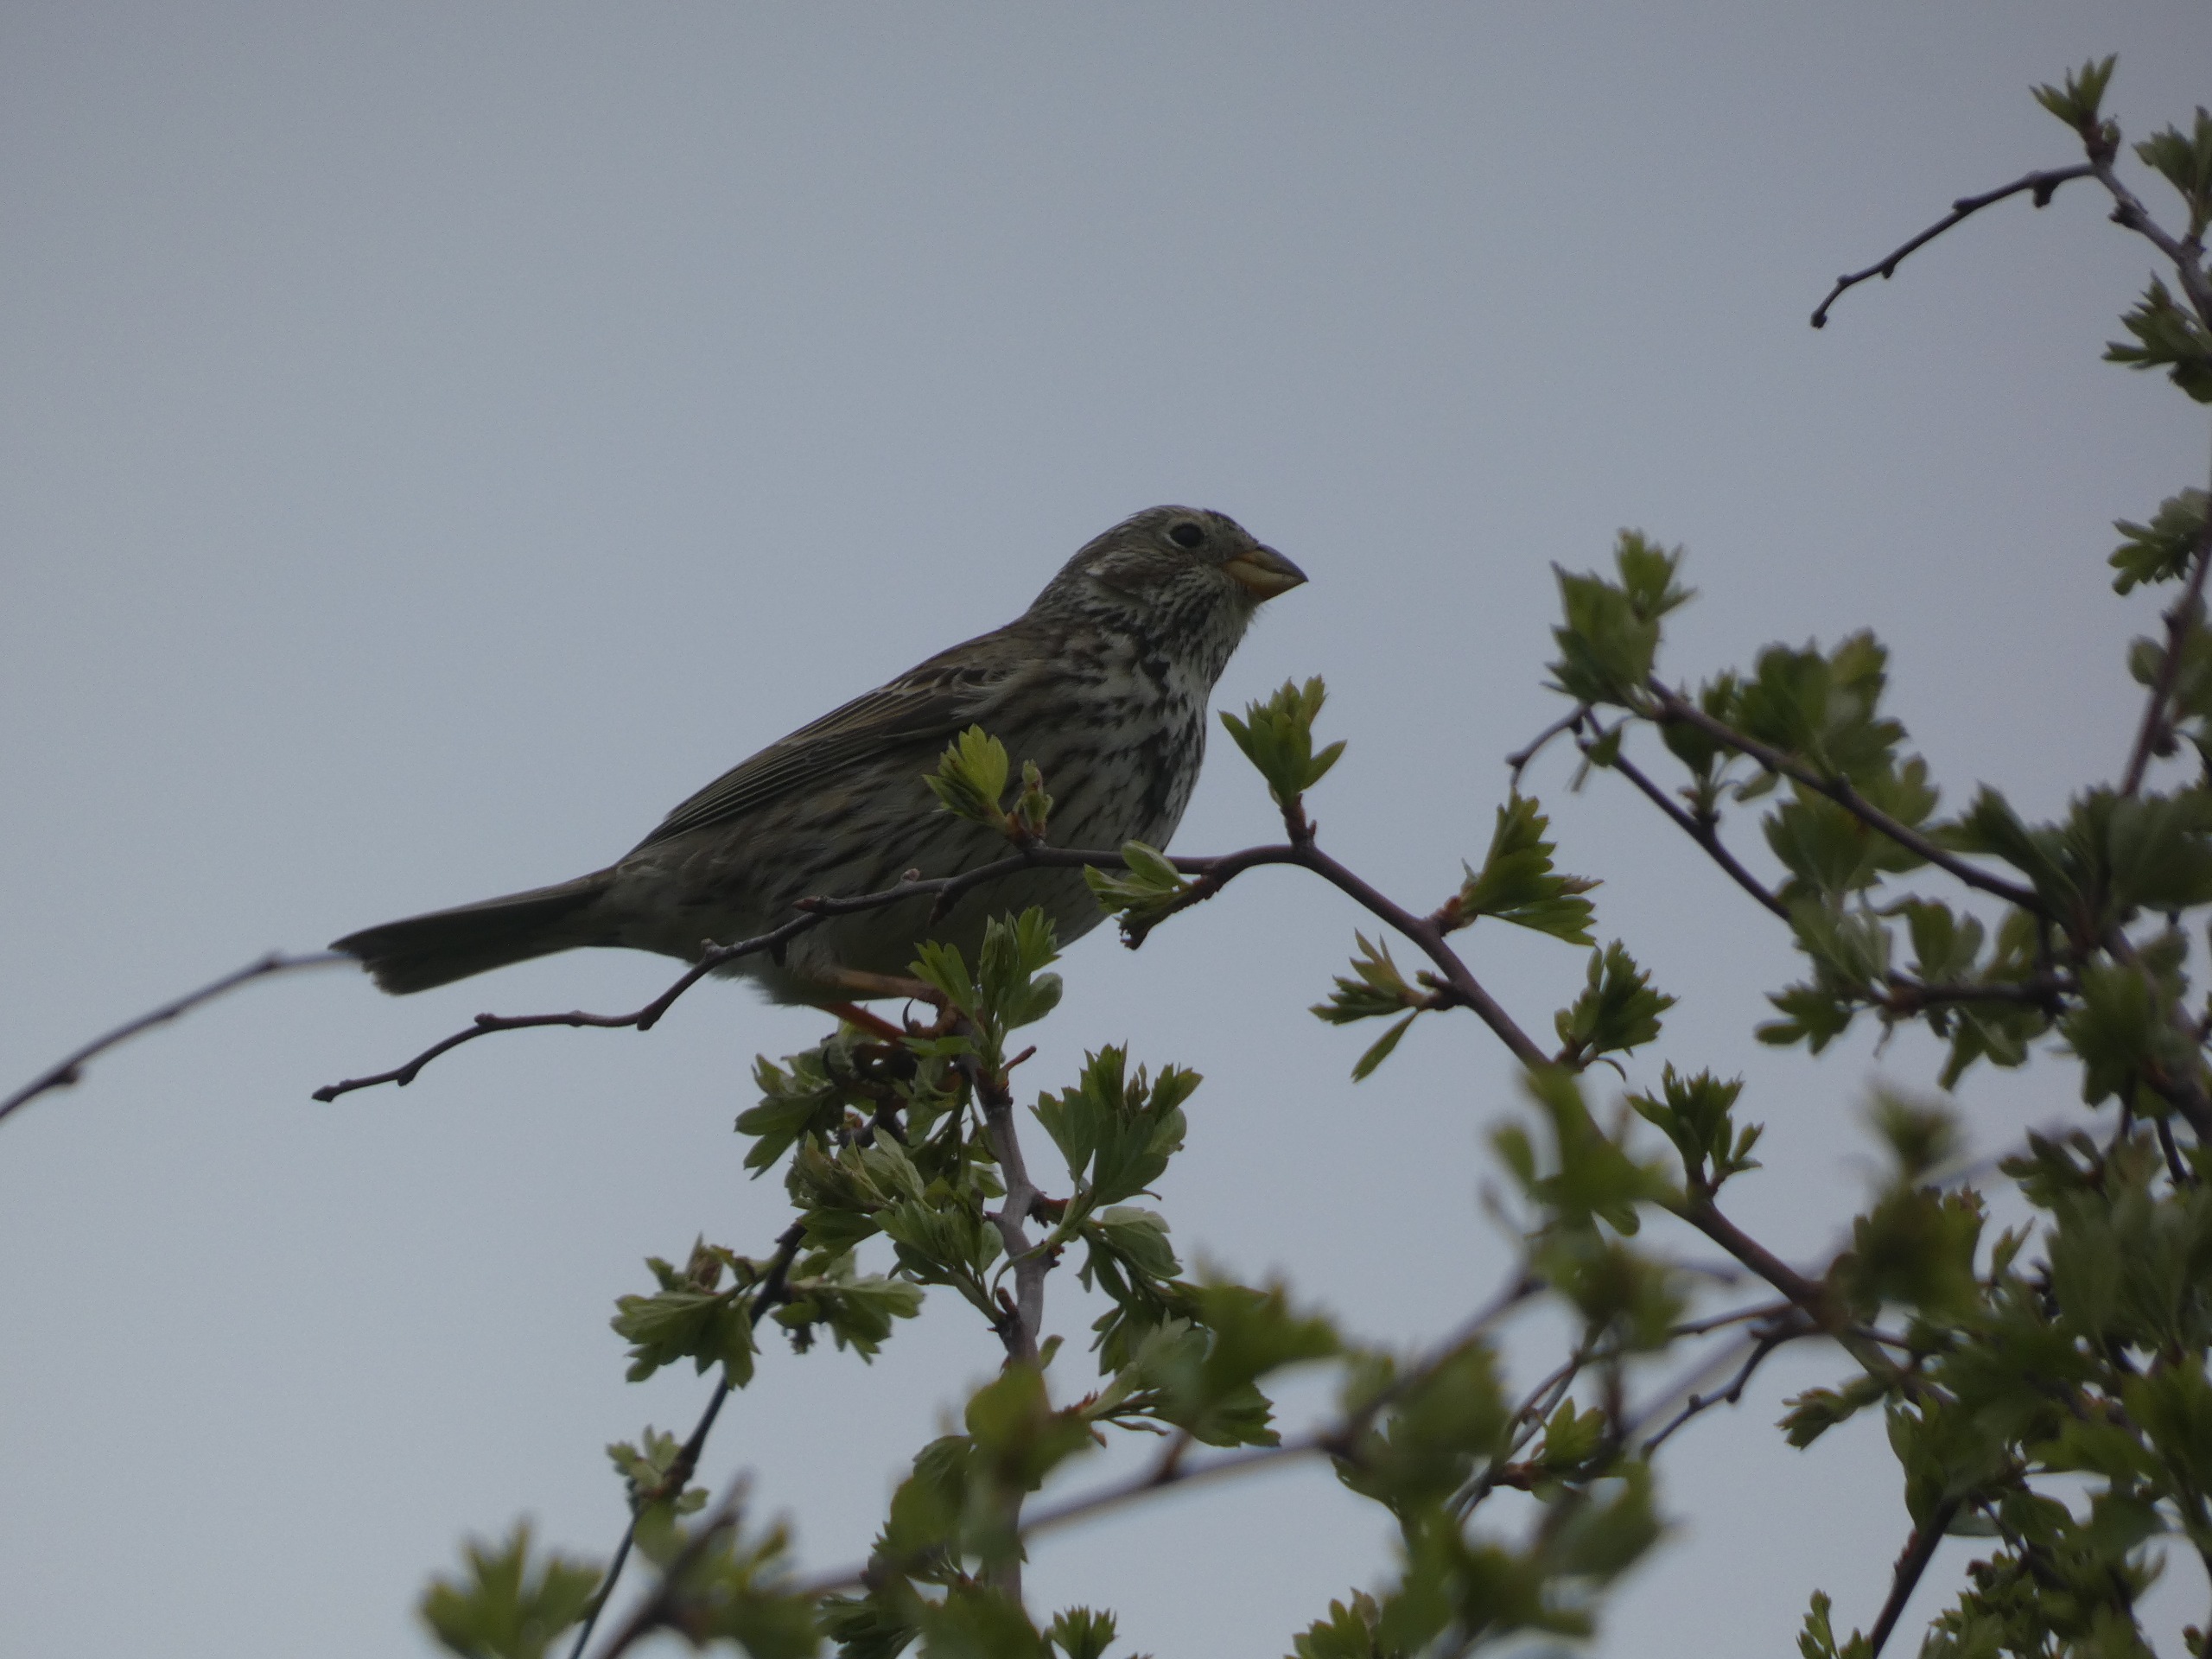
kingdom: Animalia
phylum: Chordata
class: Aves
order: Passeriformes
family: Emberizidae
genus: Emberiza
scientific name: Emberiza calandra
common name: Bomlærke
